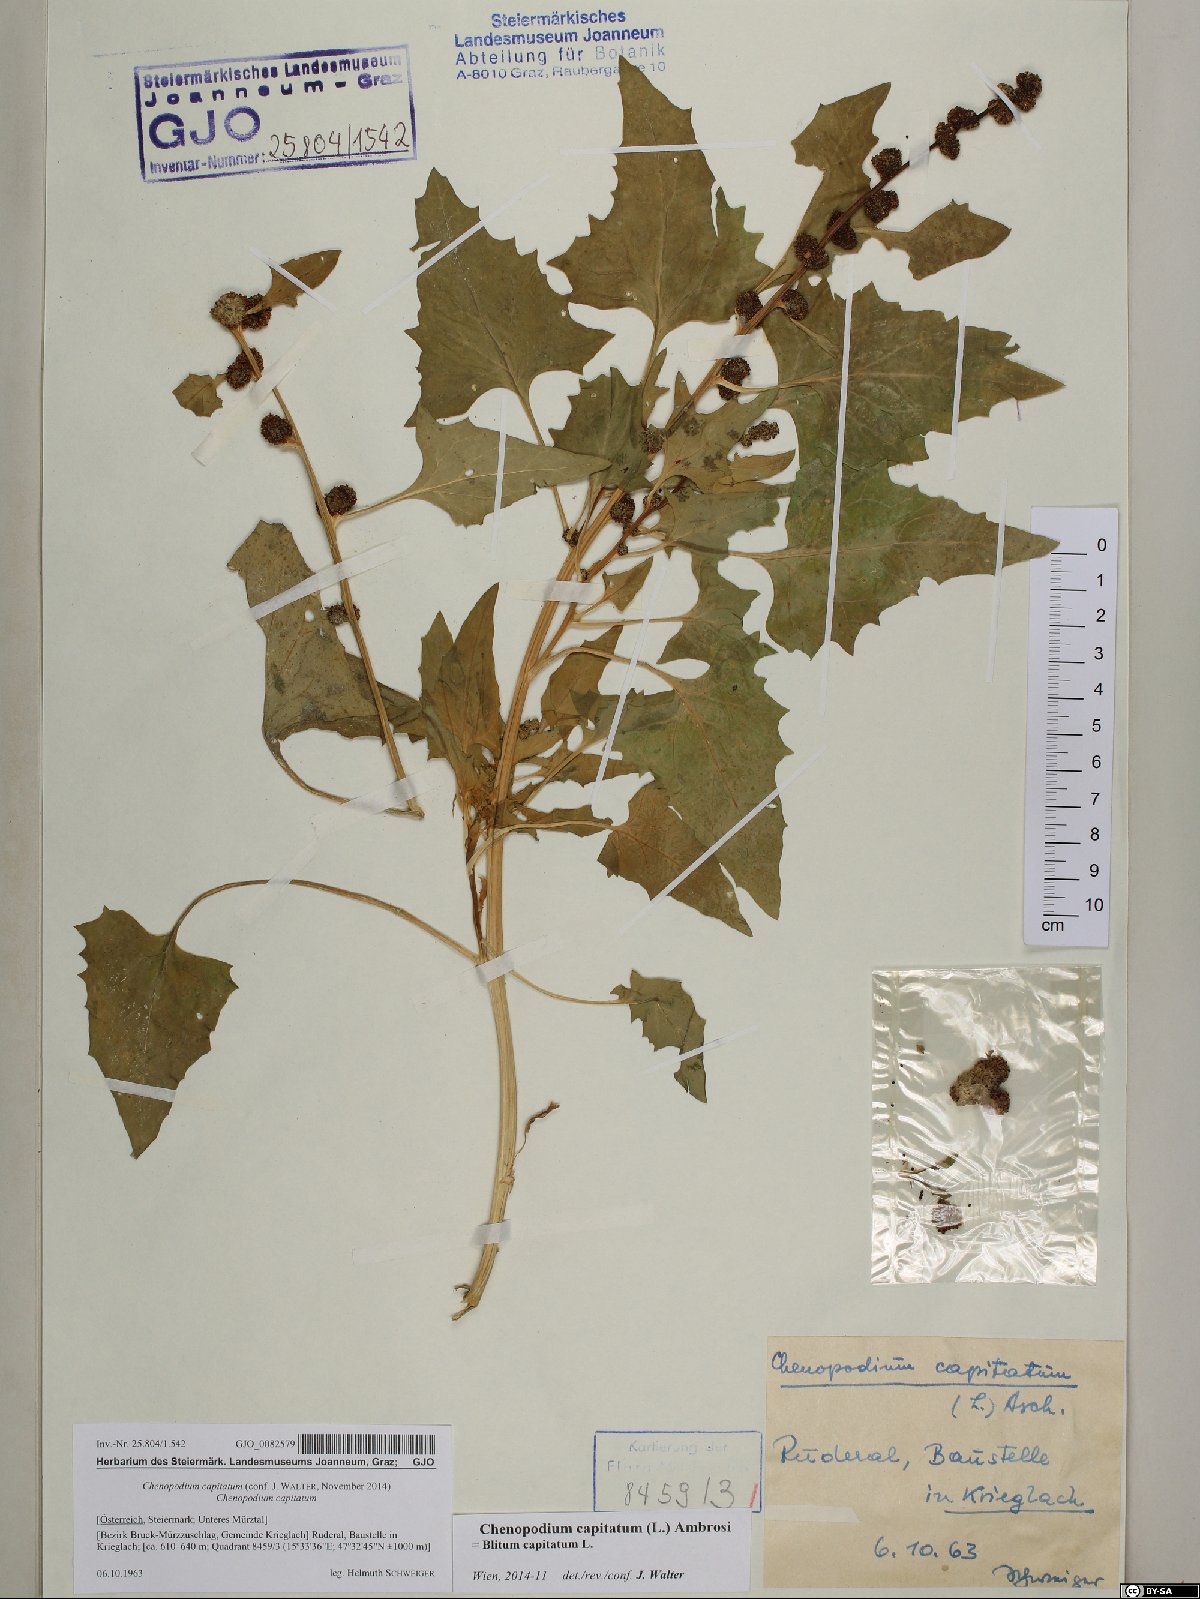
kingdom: Plantae
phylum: Tracheophyta
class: Magnoliopsida
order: Caryophyllales
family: Amaranthaceae
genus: Blitum
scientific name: Blitum capitatum
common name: Strawberry-blight
